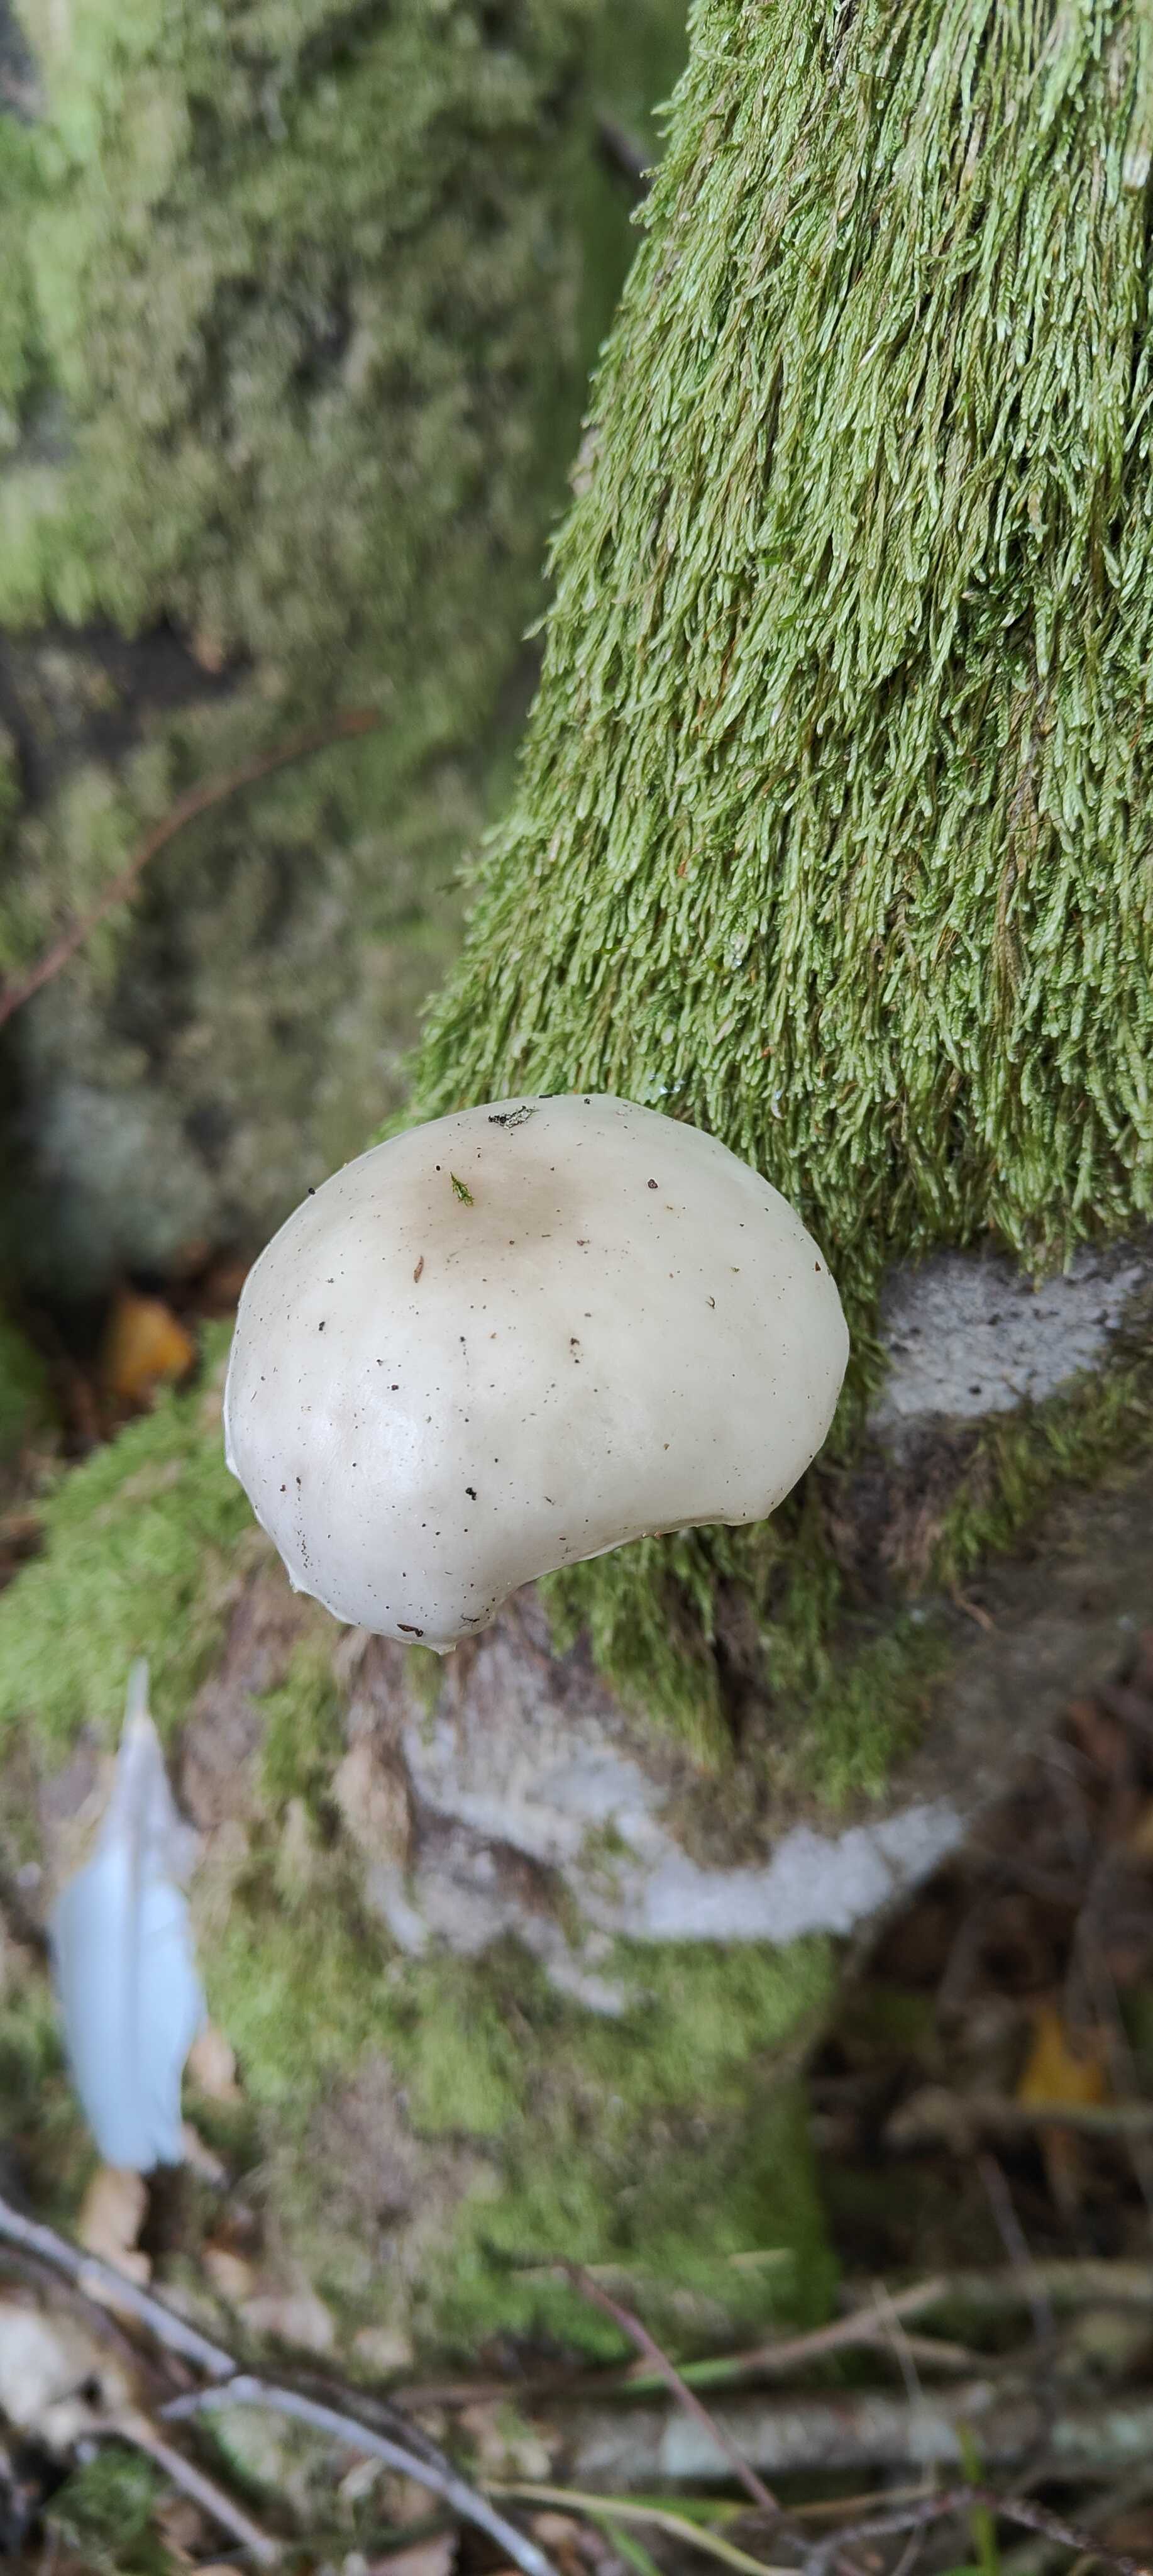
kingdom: Fungi
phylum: Basidiomycota
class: Agaricomycetes
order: Agaricales
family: Physalacriaceae
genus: Mucidula
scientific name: Mucidula mucida
